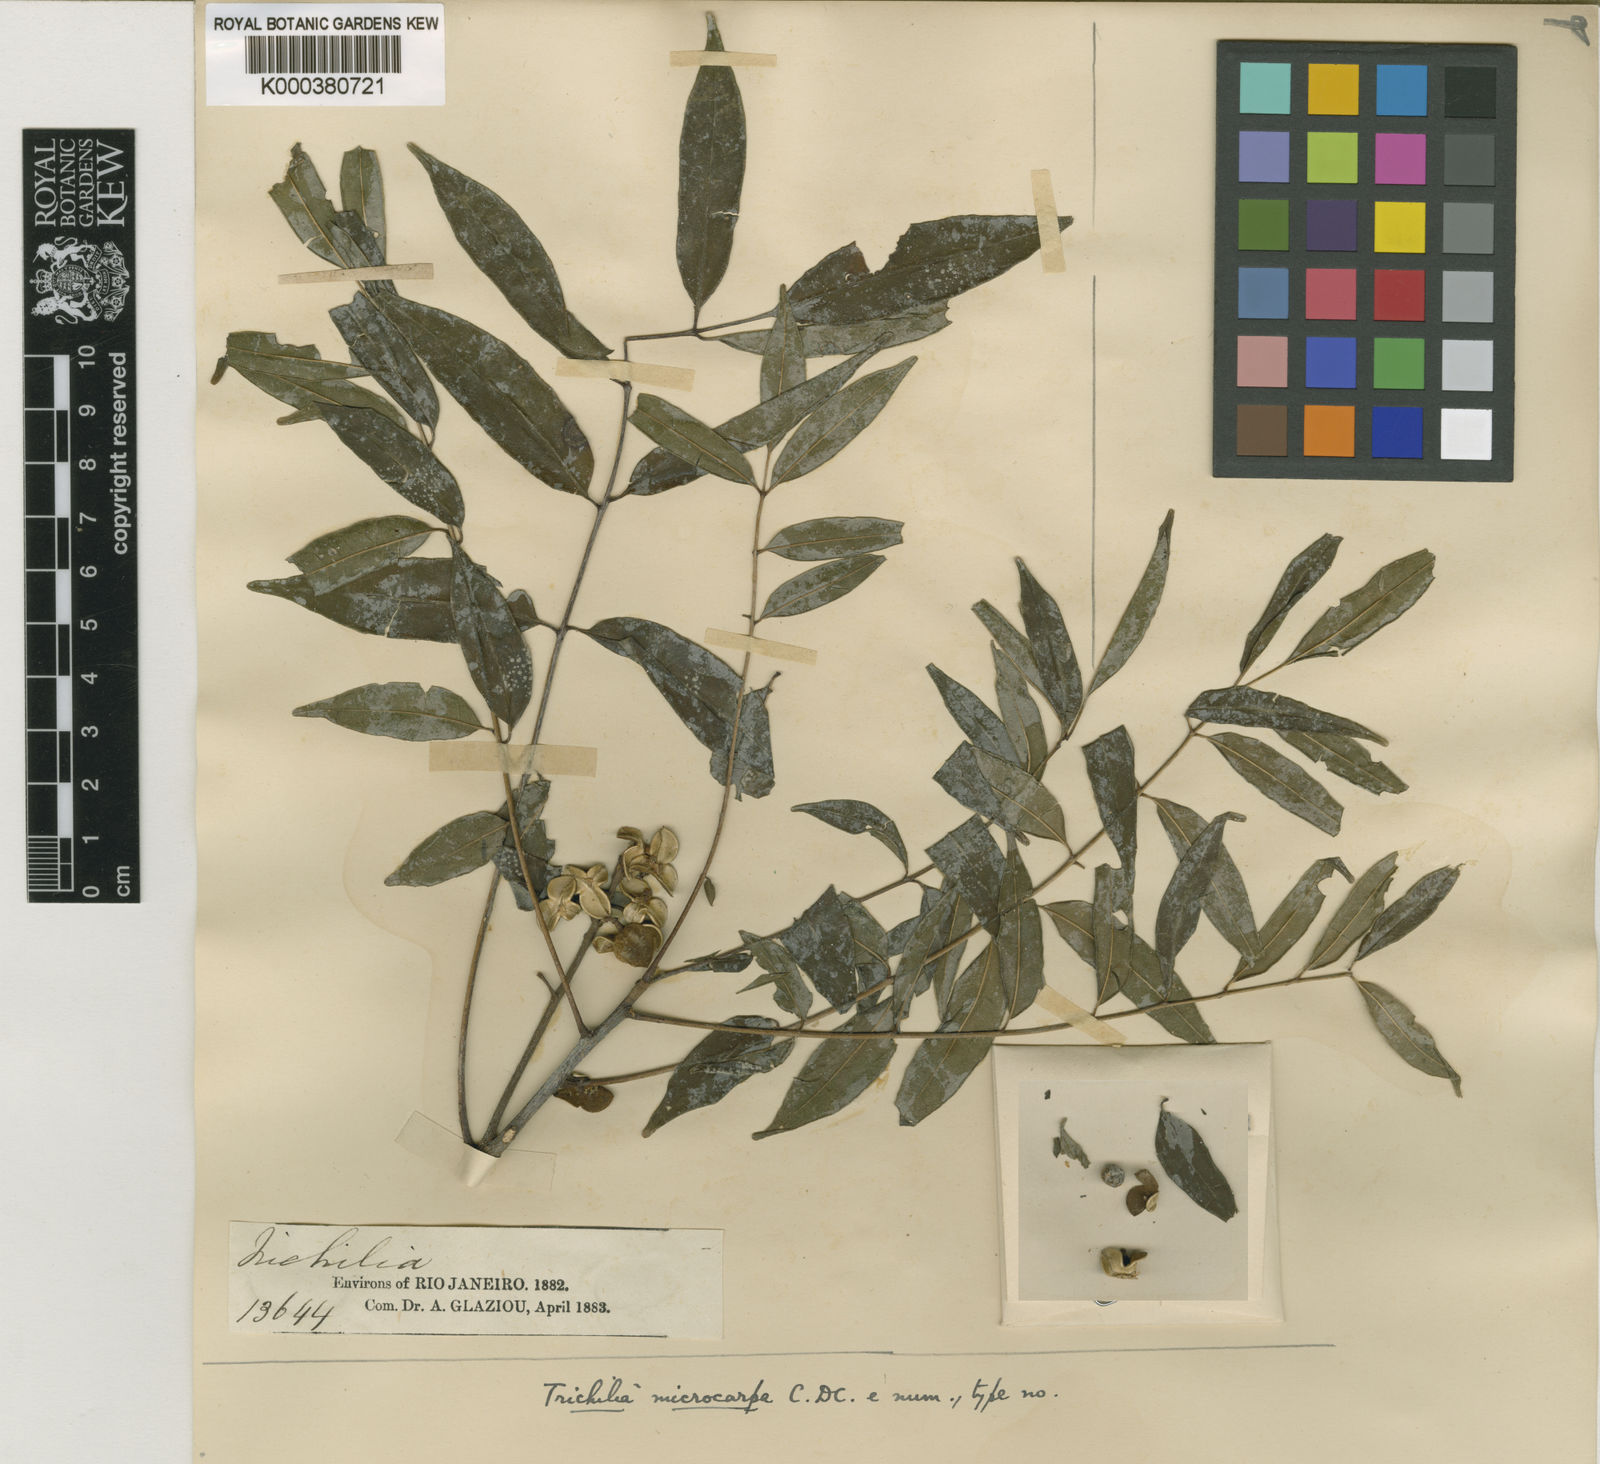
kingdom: Plantae
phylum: Tracheophyta
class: Magnoliopsida
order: Sapindales
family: Meliaceae
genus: Trichilia
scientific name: Trichilia hirta
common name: Red-cedar
